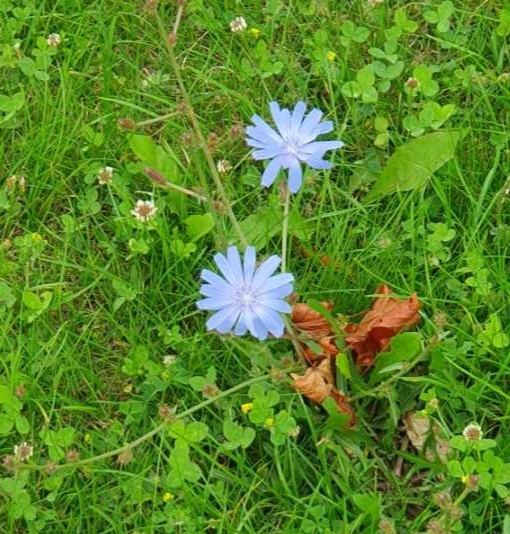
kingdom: Plantae
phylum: Tracheophyta
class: Magnoliopsida
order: Asterales
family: Asteraceae
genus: Cichorium
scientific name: Cichorium intybus
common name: Cikorie
